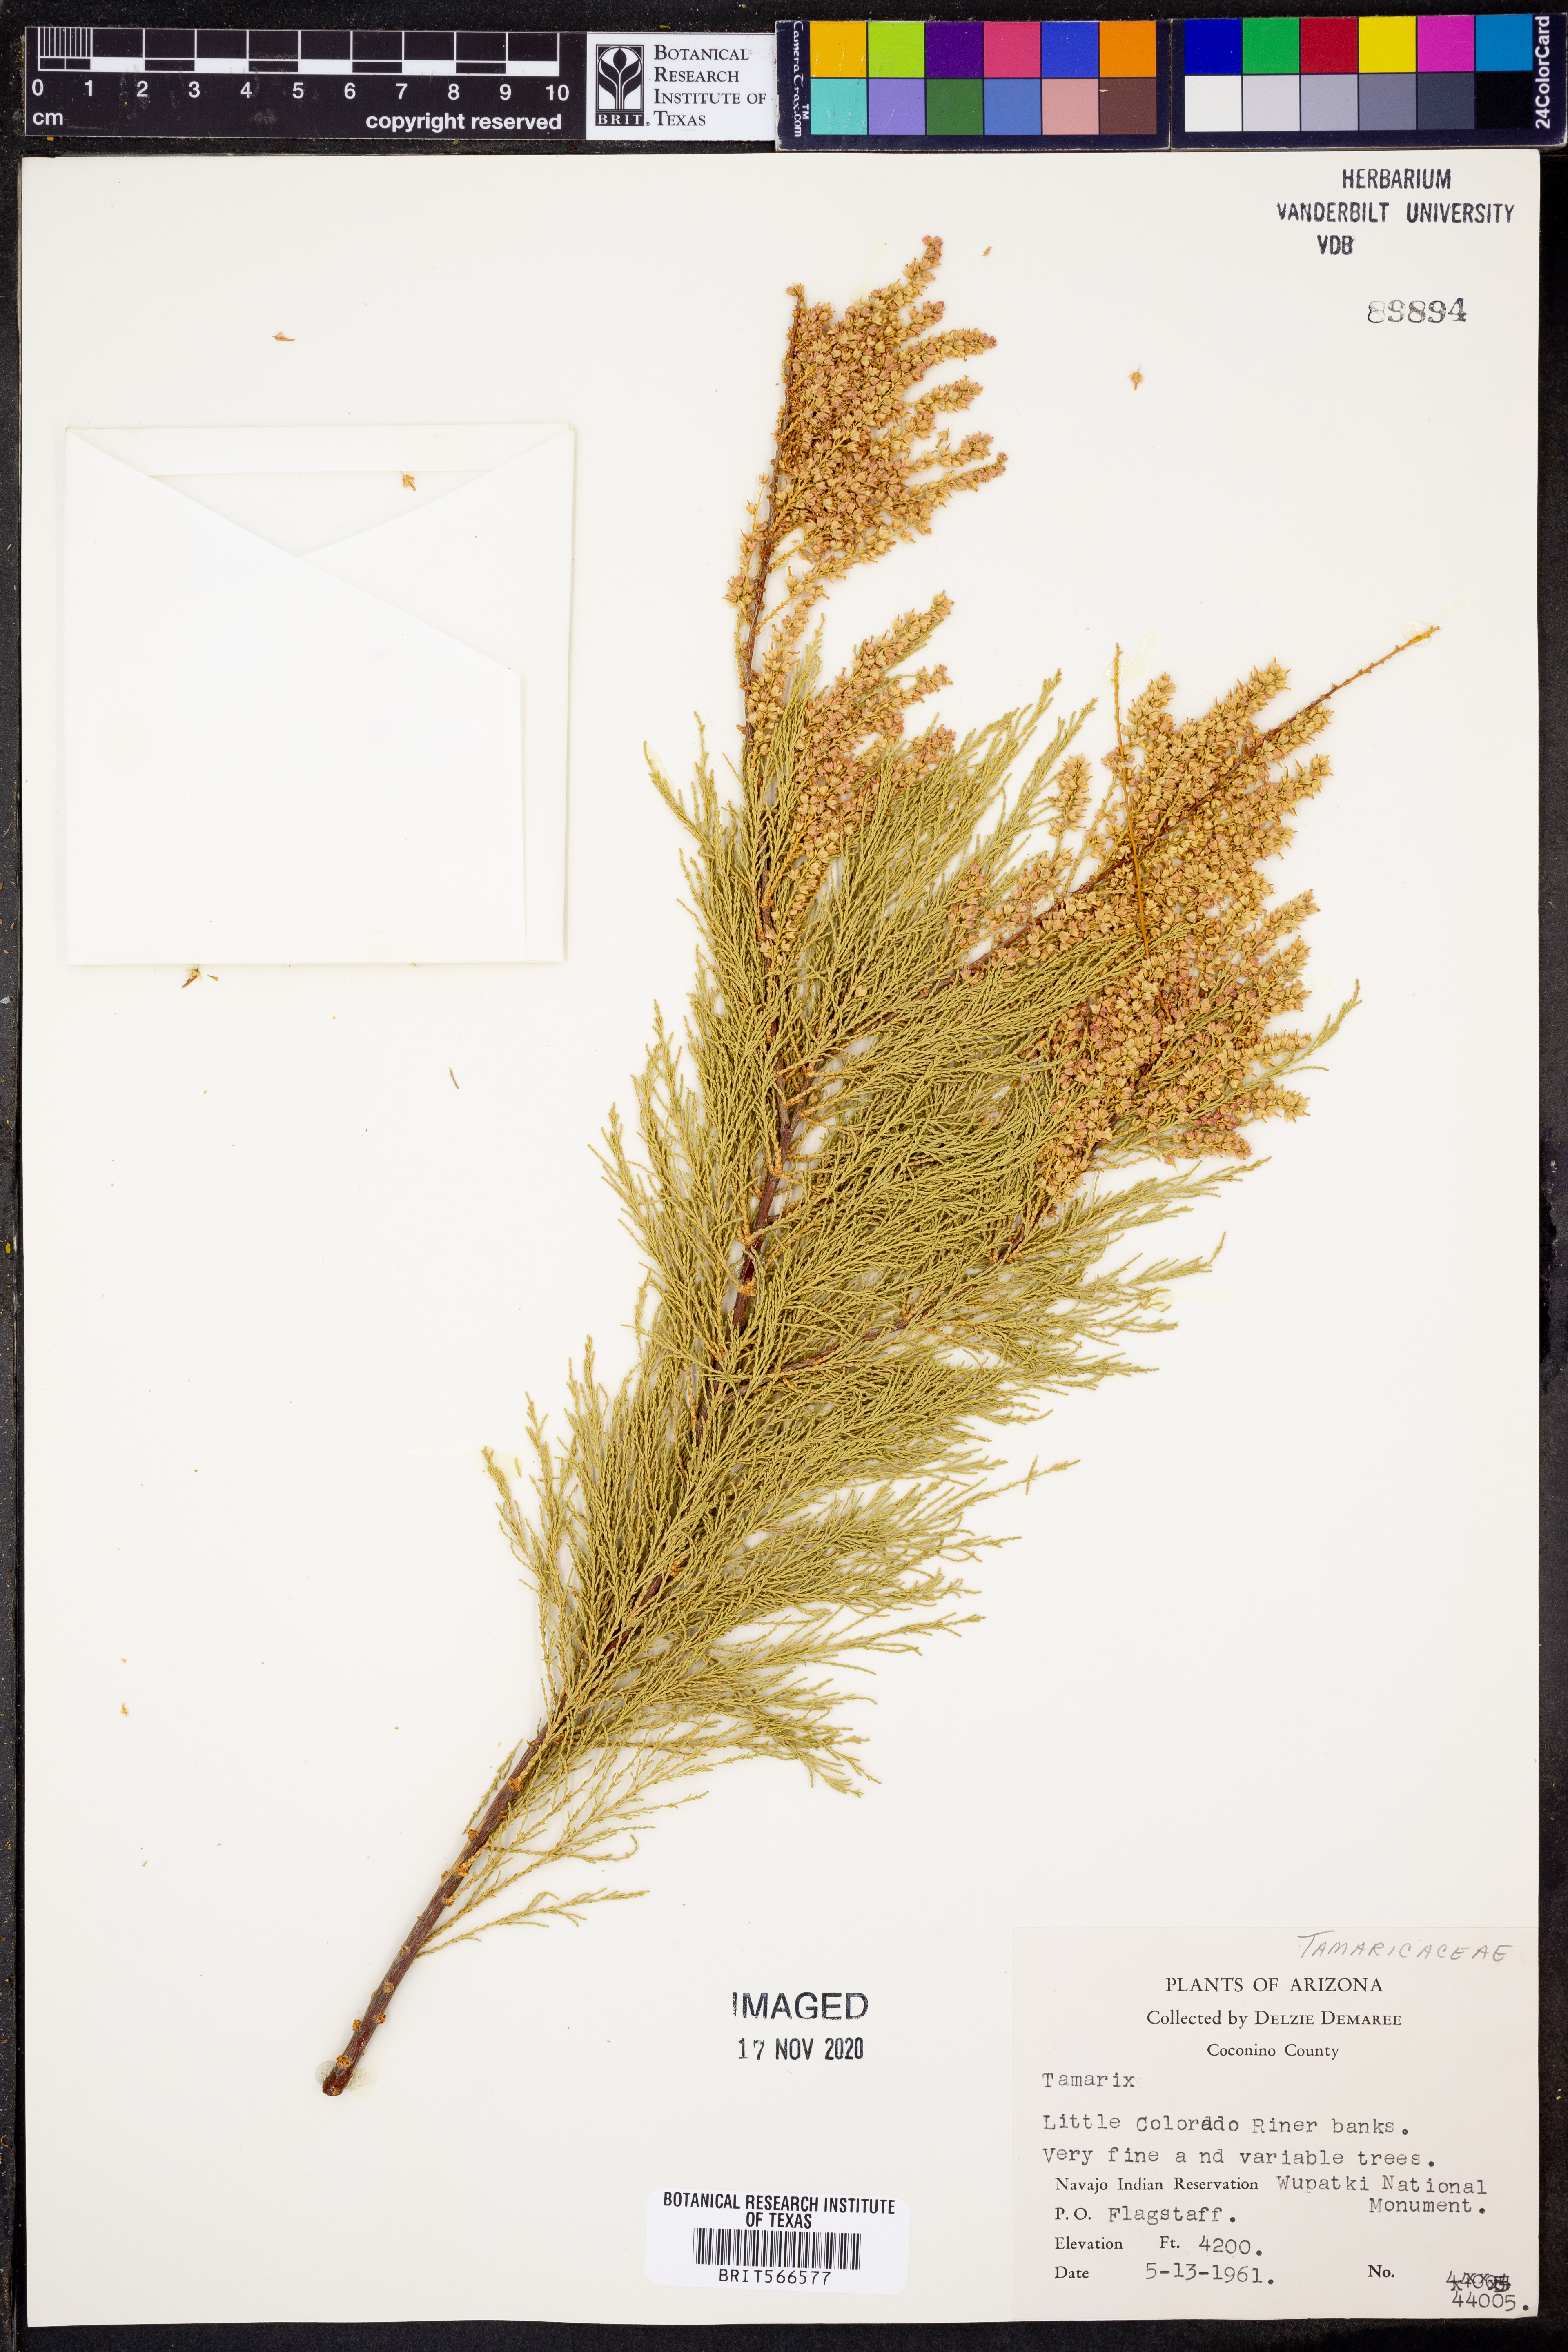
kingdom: Plantae
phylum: Tracheophyta
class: Magnoliopsida
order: Caryophyllales
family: Tamaricaceae
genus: Tamarix
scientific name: Tamarix
